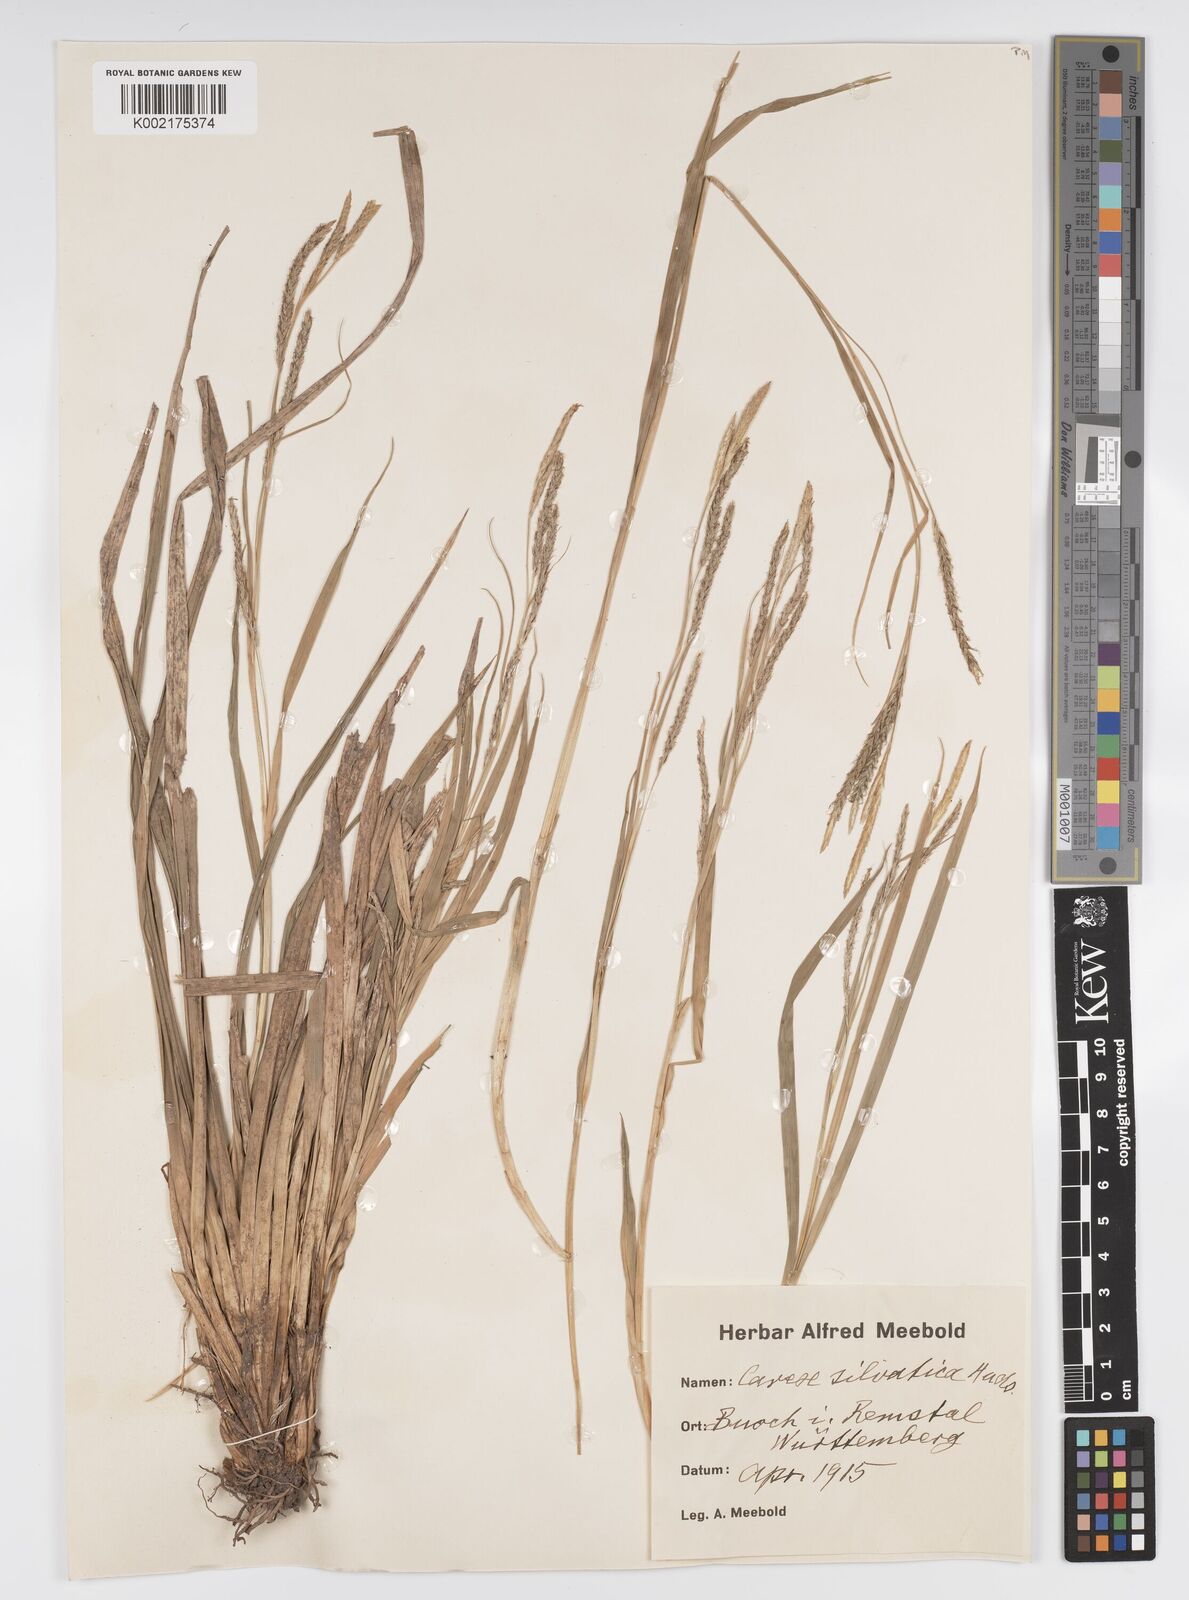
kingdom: Plantae
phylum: Tracheophyta
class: Liliopsida
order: Poales
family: Cyperaceae
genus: Carex
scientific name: Carex sylvatica
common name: Wood-sedge
